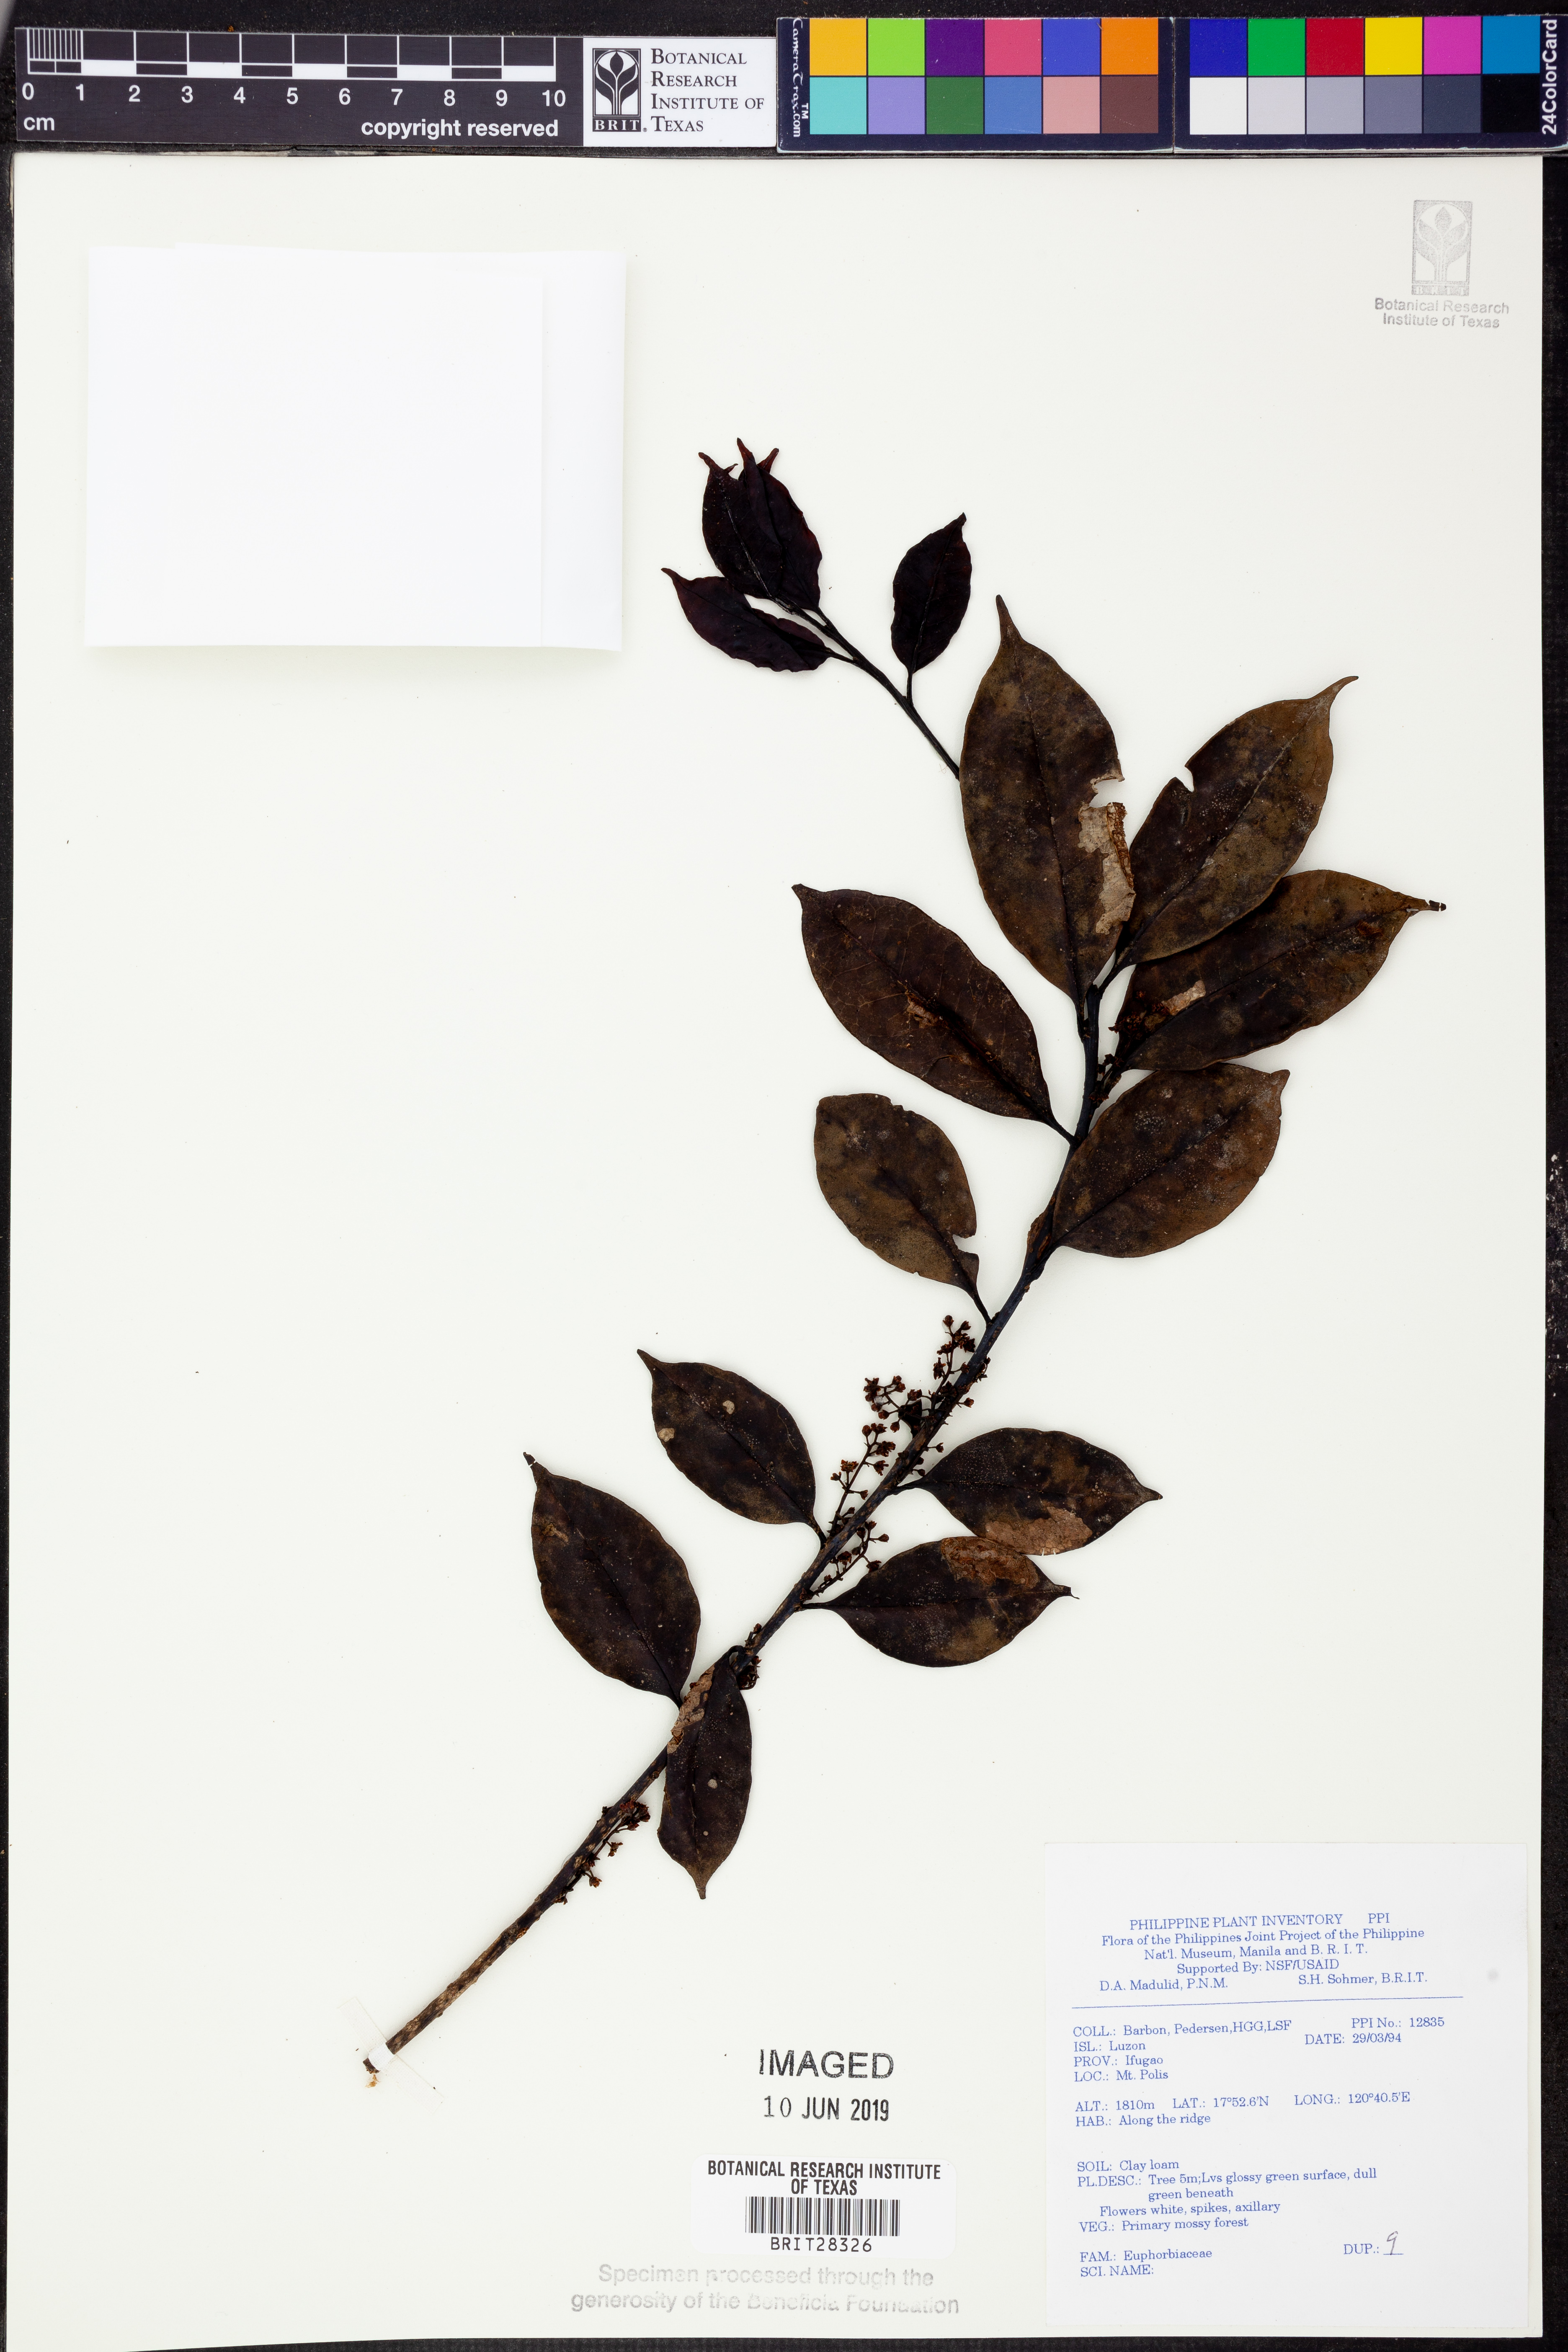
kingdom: Plantae
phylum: Tracheophyta
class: Magnoliopsida
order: Malpighiales
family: Euphorbiaceae
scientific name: Euphorbiaceae
